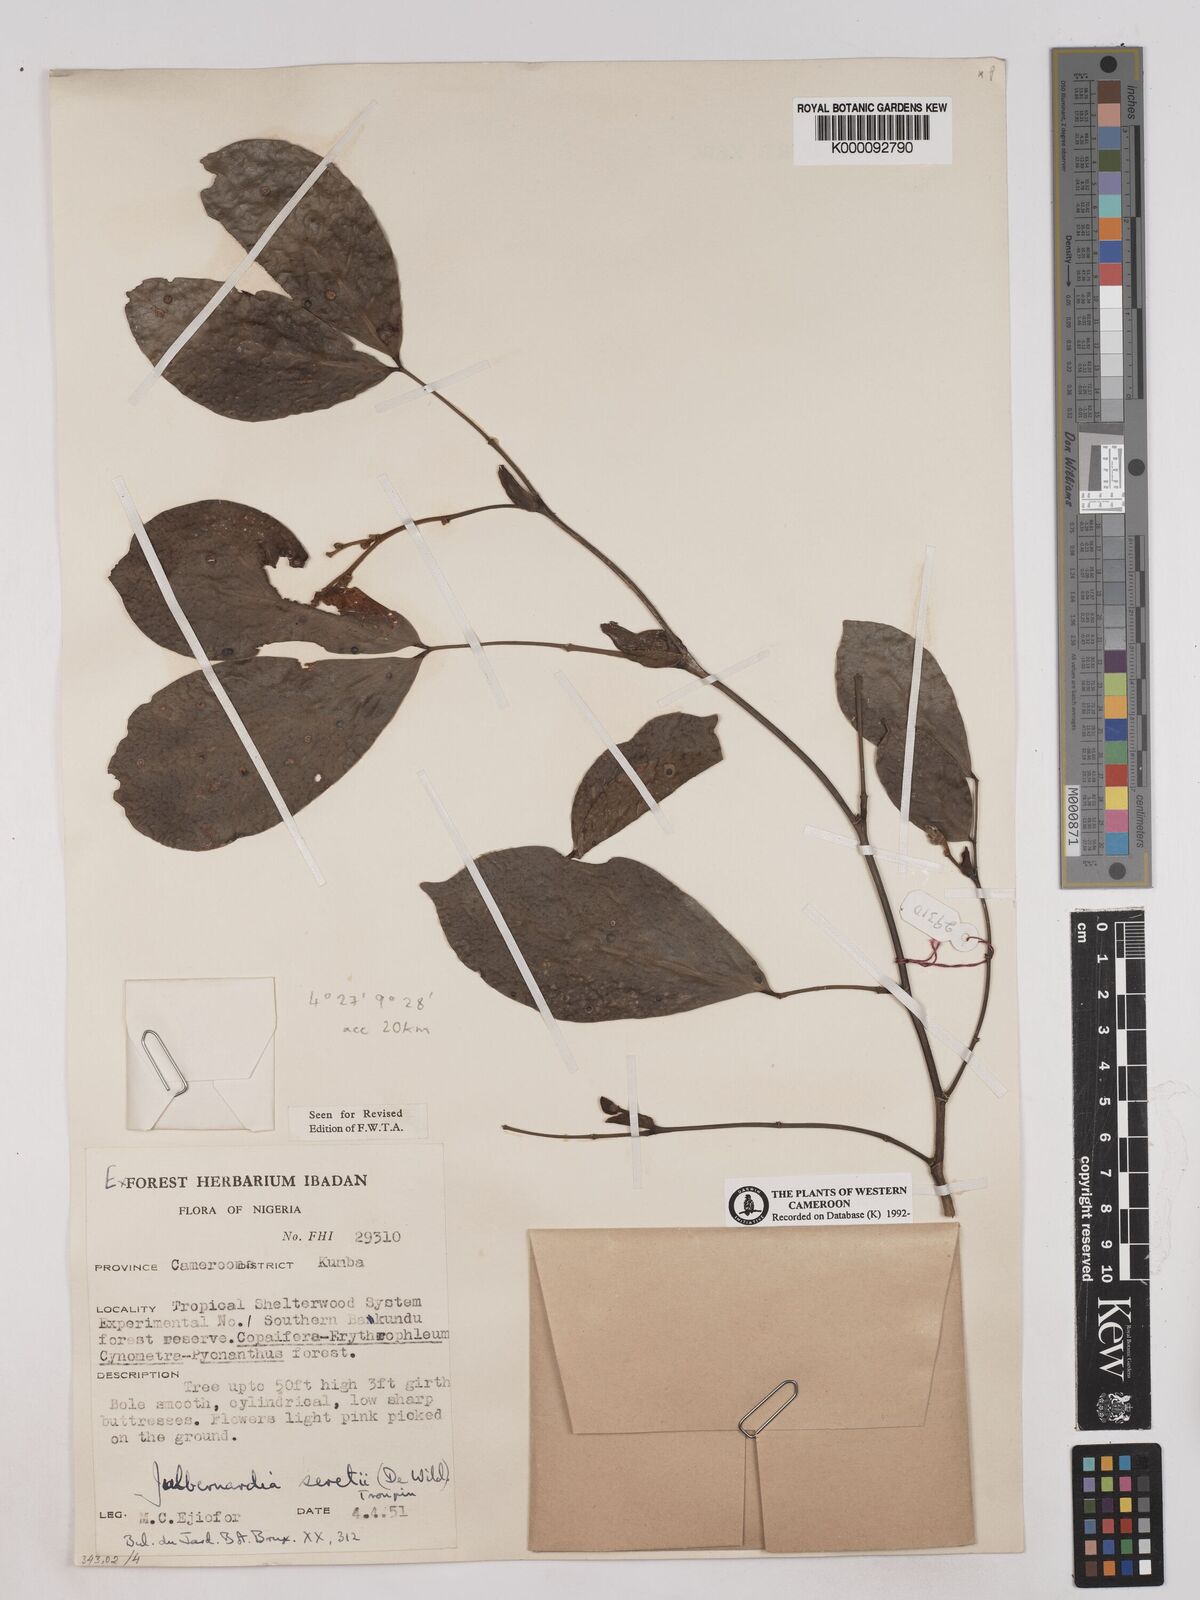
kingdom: Plantae
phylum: Tracheophyta
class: Magnoliopsida
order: Fabales
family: Fabaceae
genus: Julbernardia
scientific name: Julbernardia seretii
